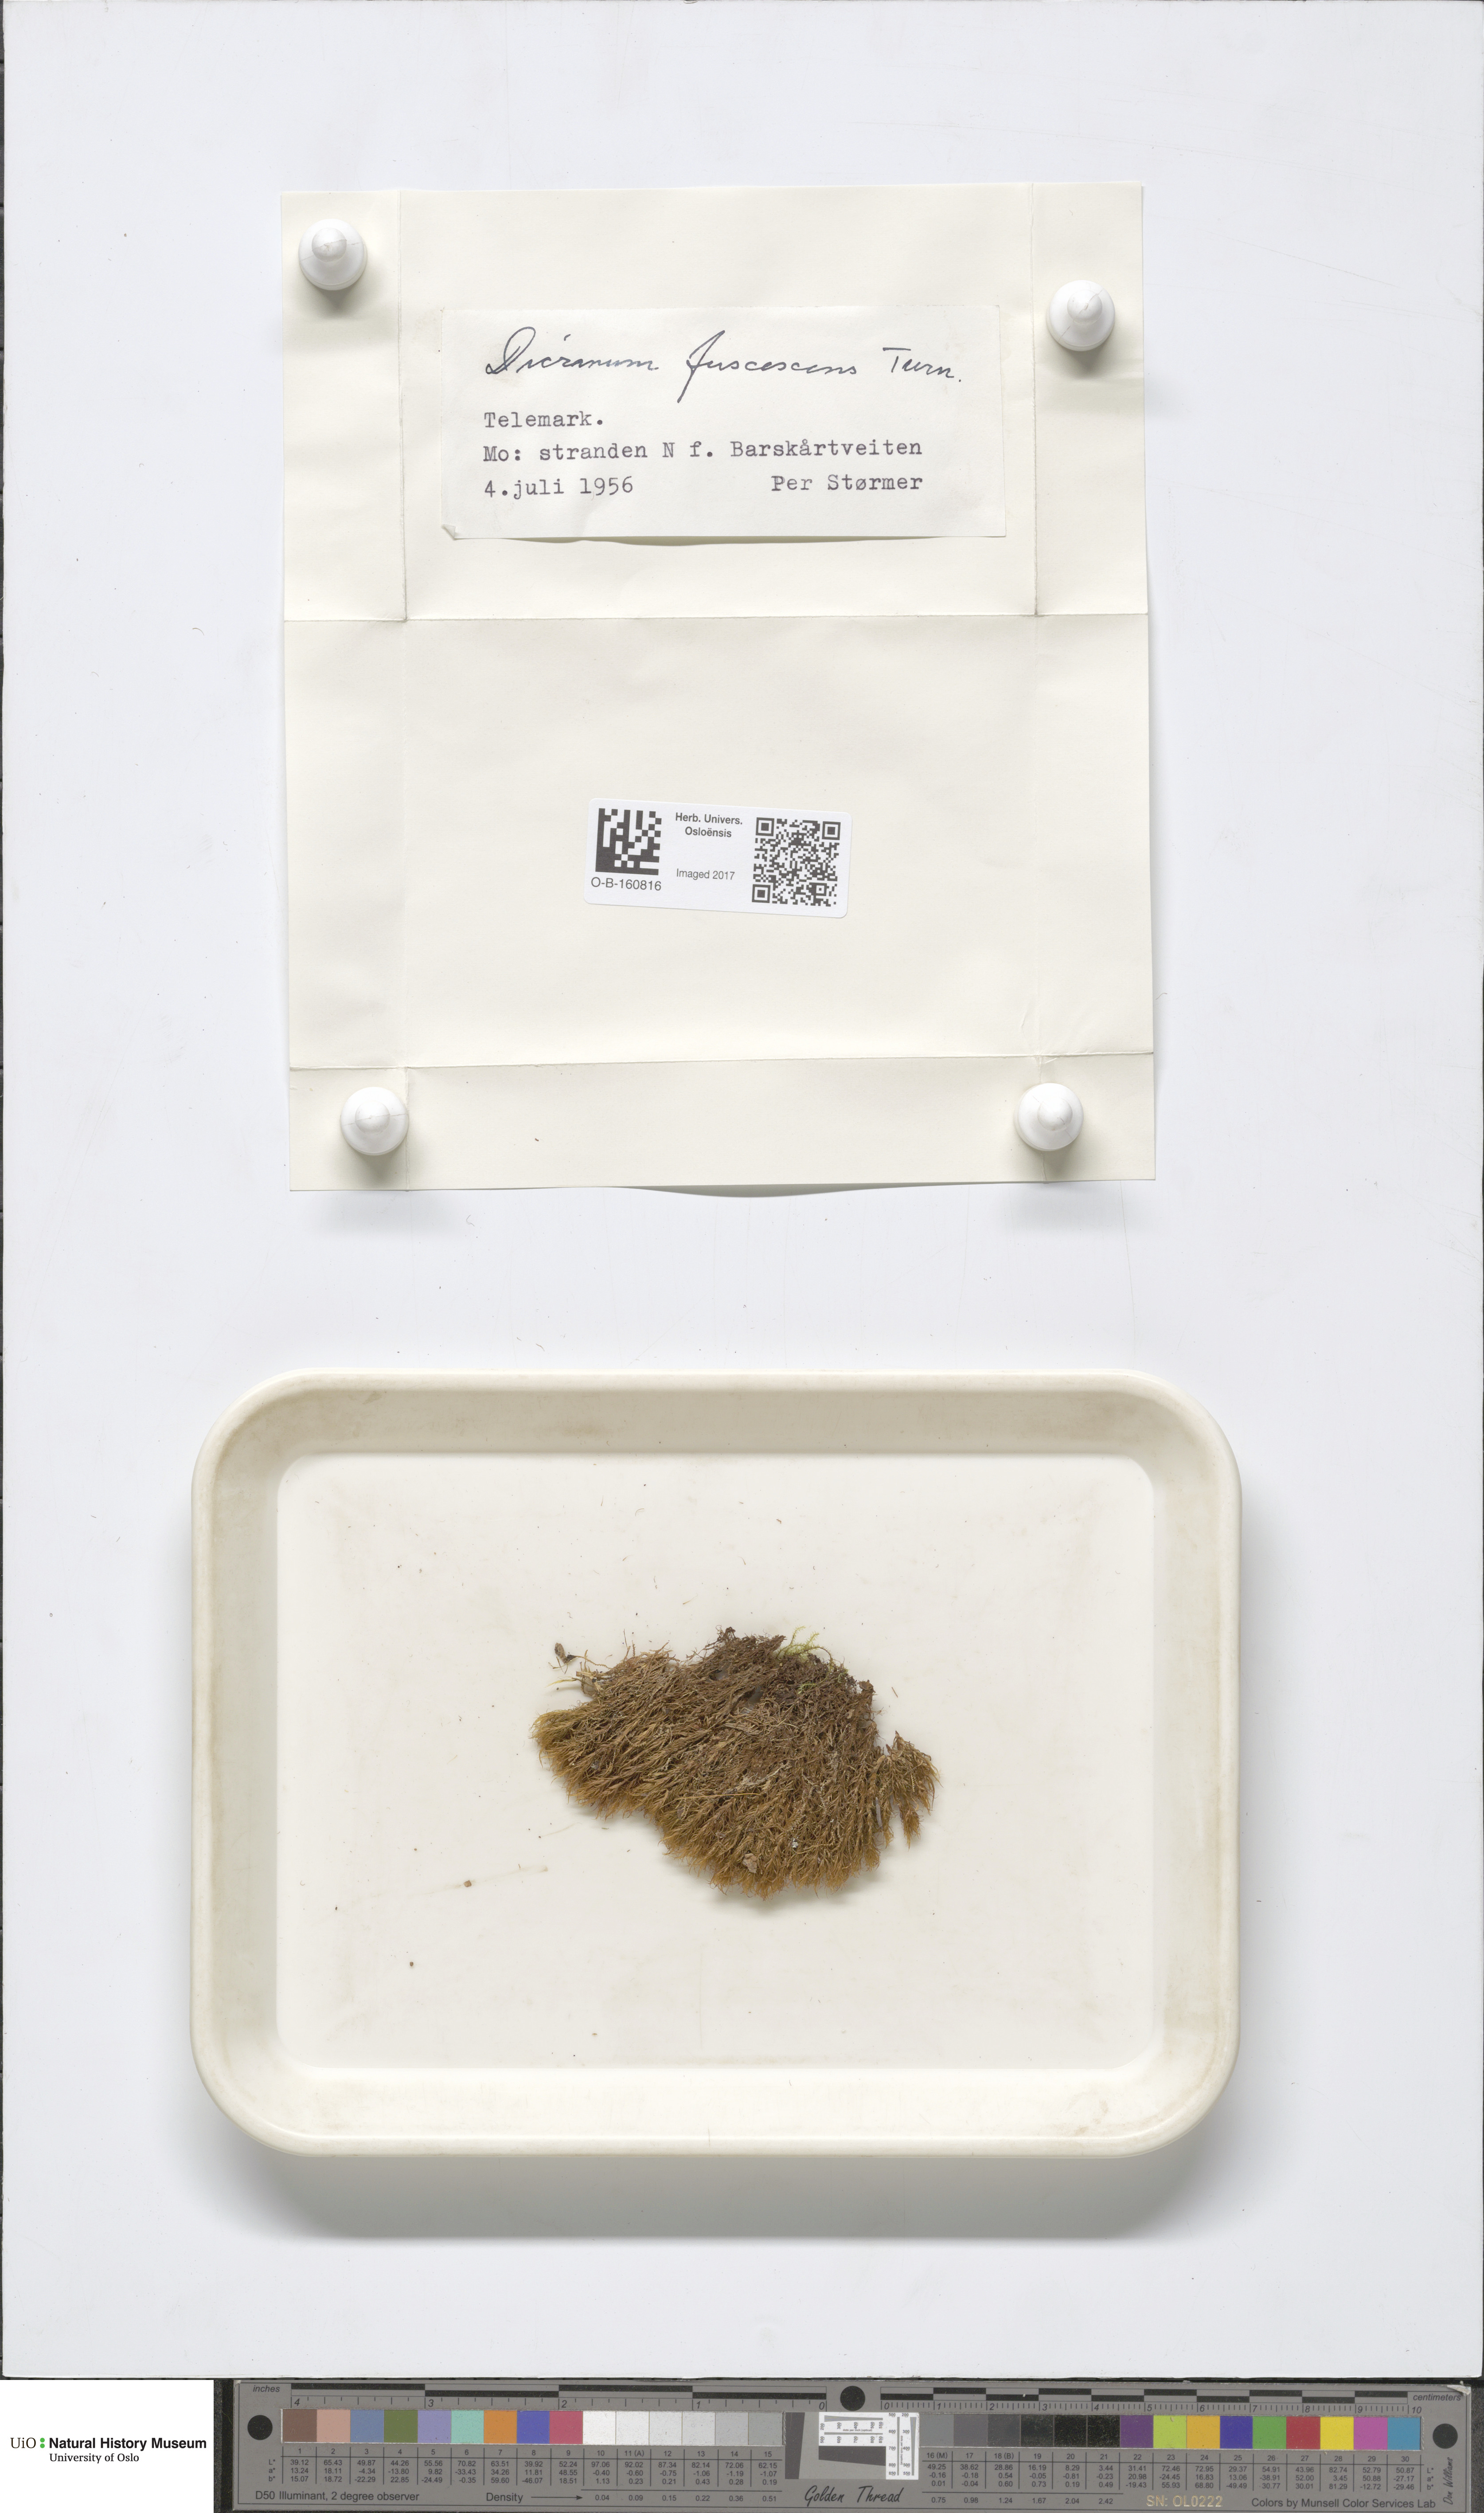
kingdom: Plantae
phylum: Bryophyta
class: Bryopsida
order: Dicranales
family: Dicranaceae
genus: Dicranum
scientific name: Dicranum fuscescens
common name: Curly heron's-bill moss
